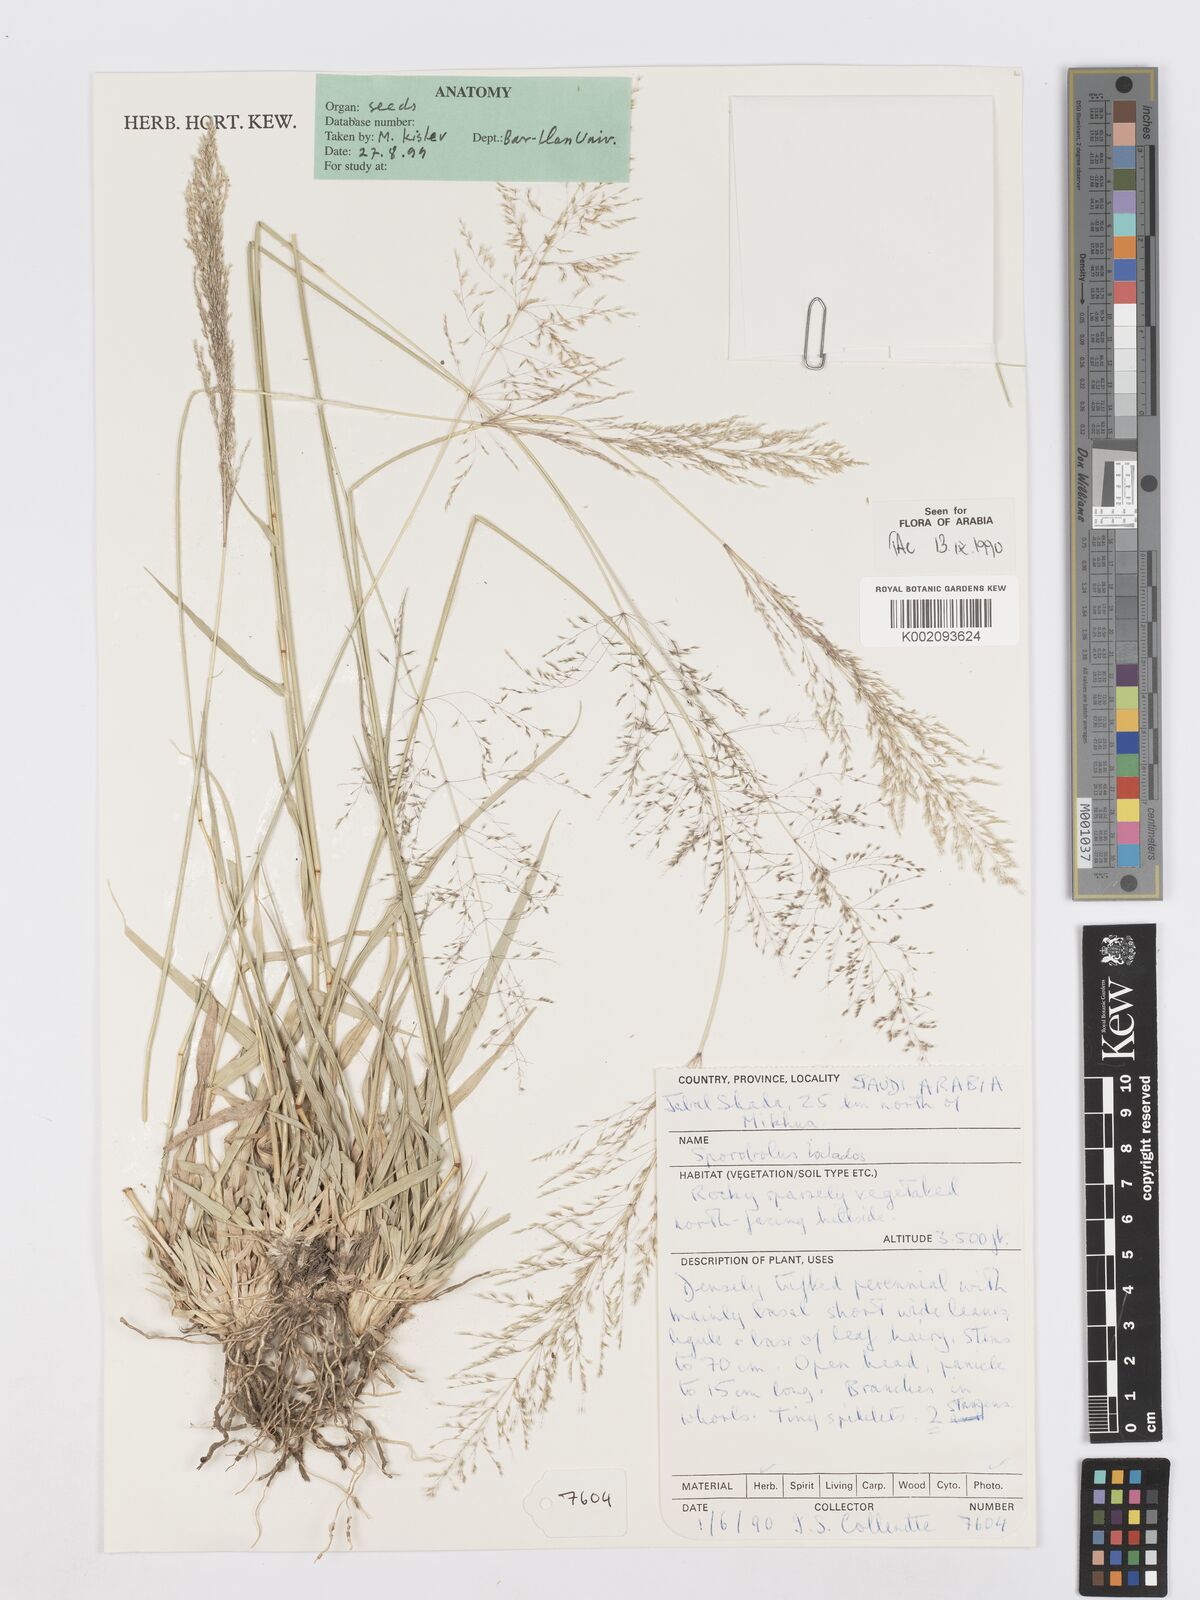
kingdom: Plantae
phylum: Tracheophyta
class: Liliopsida
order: Poales
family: Poaceae
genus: Sporobolus
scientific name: Sporobolus ioclados
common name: Pan dropseed
